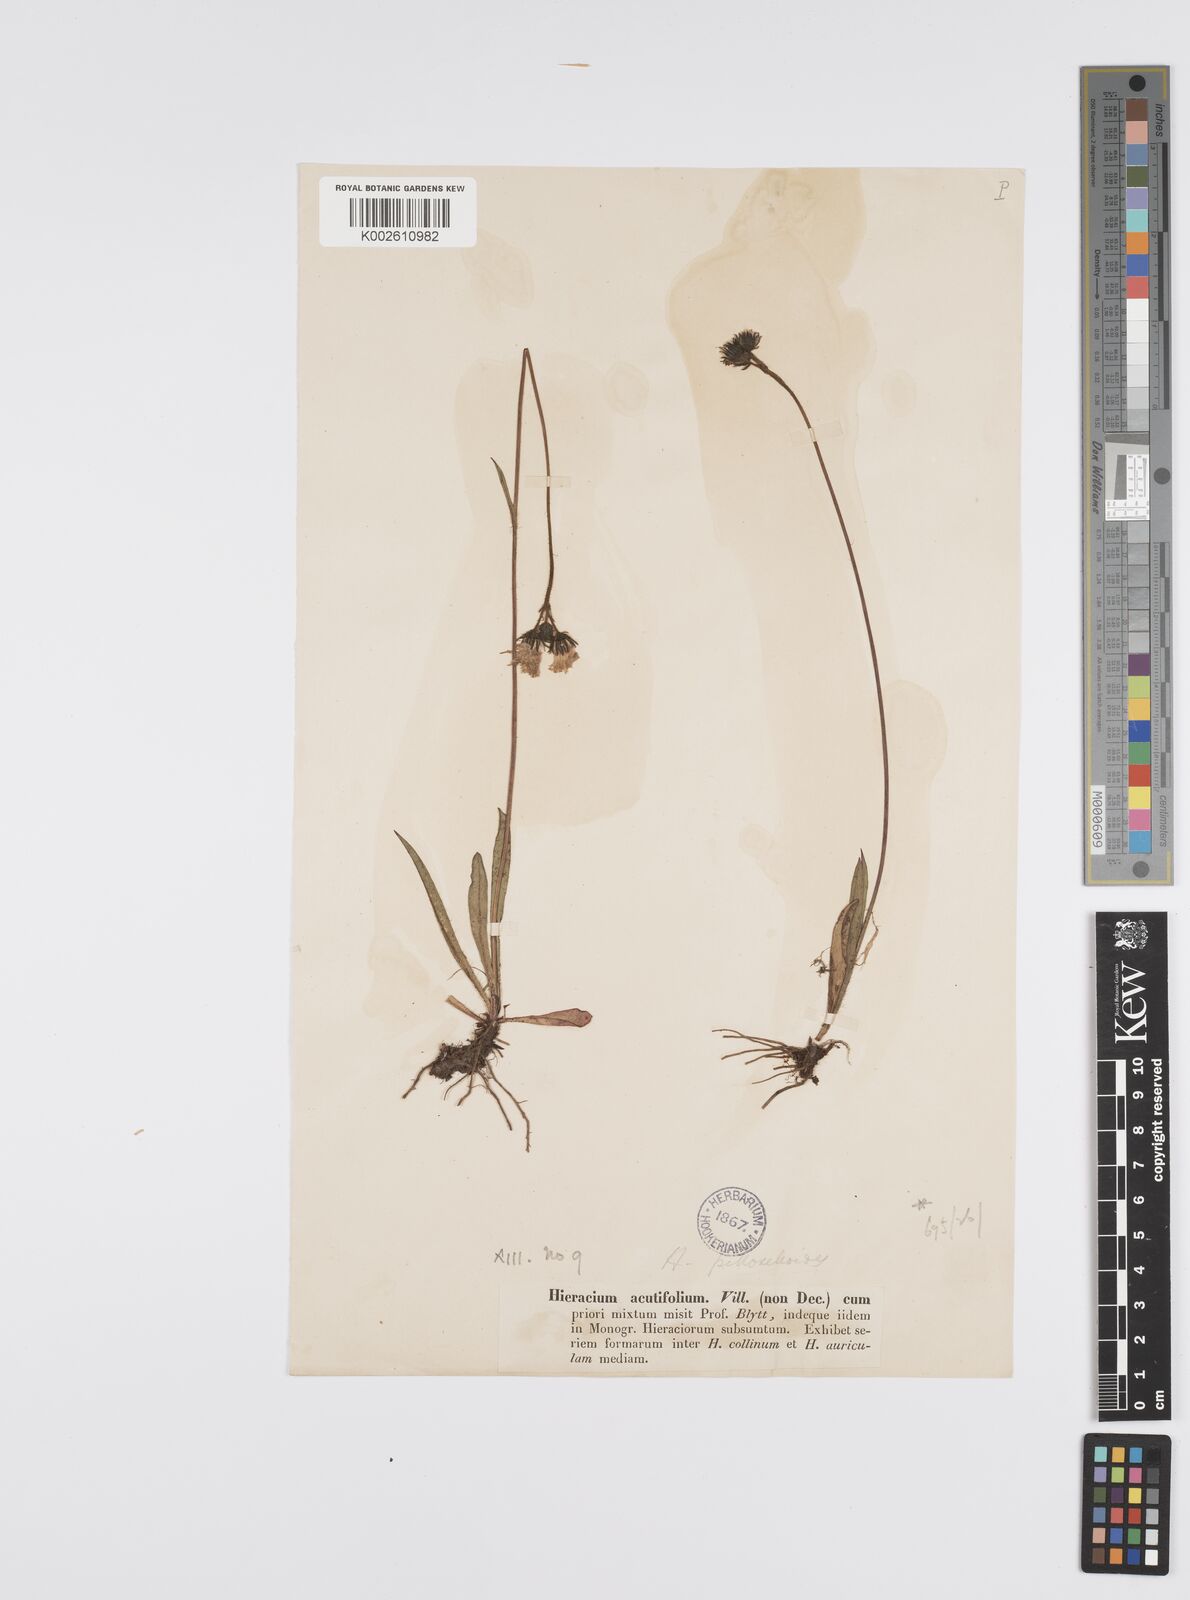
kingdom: Plantae
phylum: Tracheophyta
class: Magnoliopsida
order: Asterales
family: Asteraceae
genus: Pilosella
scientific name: Pilosella piloselloides
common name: Glaucous king-devil
